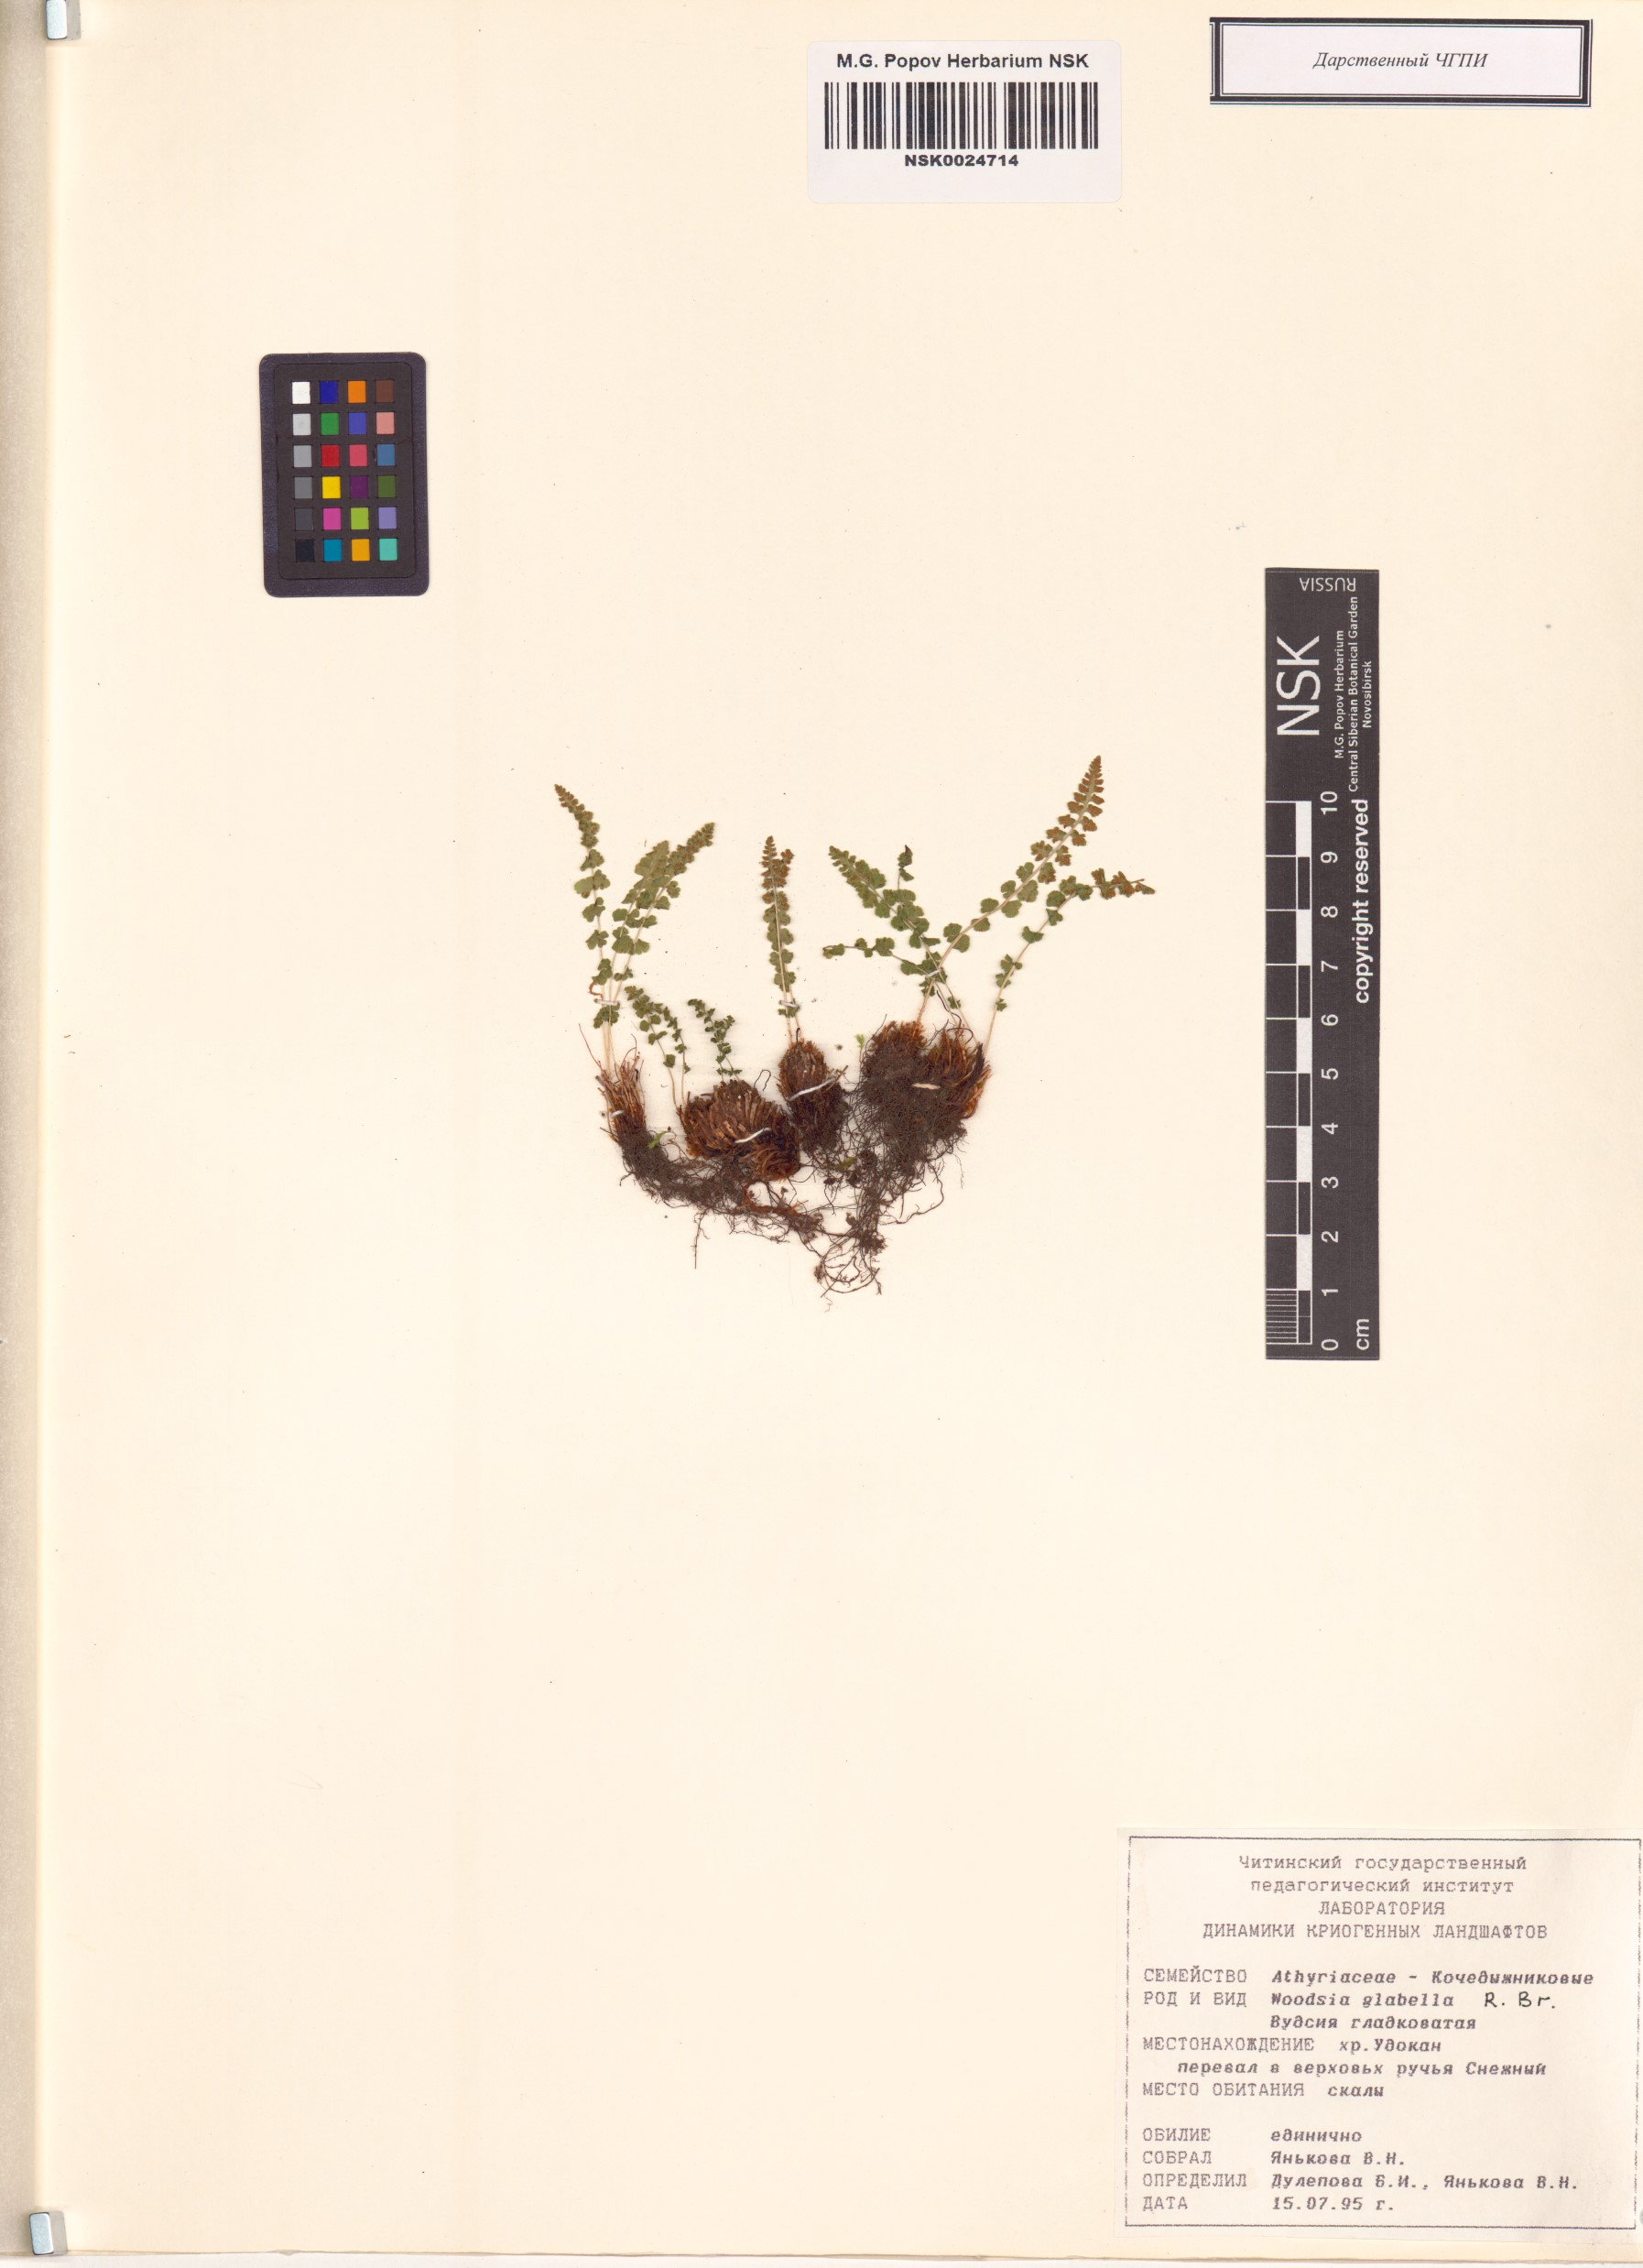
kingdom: Plantae
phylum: Tracheophyta
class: Polypodiopsida
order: Polypodiales
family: Woodsiaceae
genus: Woodsia
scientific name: Woodsia glabella
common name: Smooth woodsia
